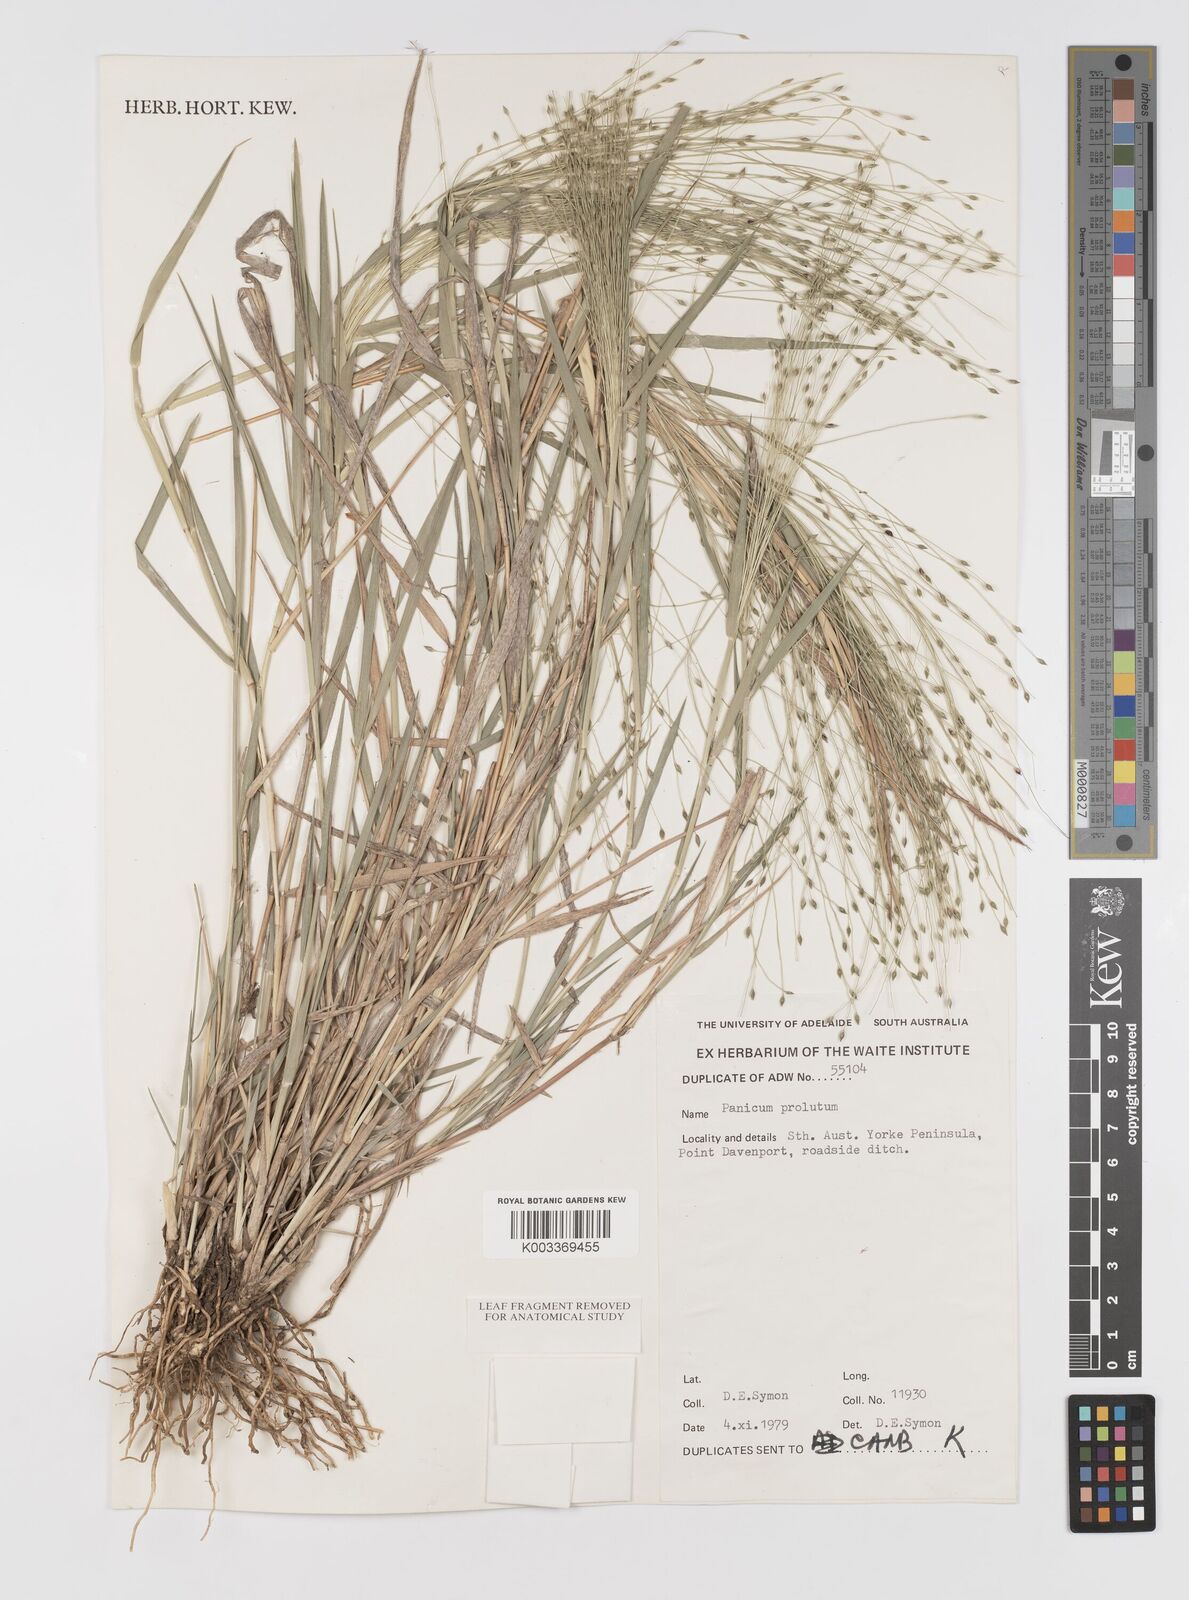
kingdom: Plantae
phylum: Tracheophyta
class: Liliopsida
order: Poales
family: Poaceae
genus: Walwhalleya
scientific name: Walwhalleya proluta
